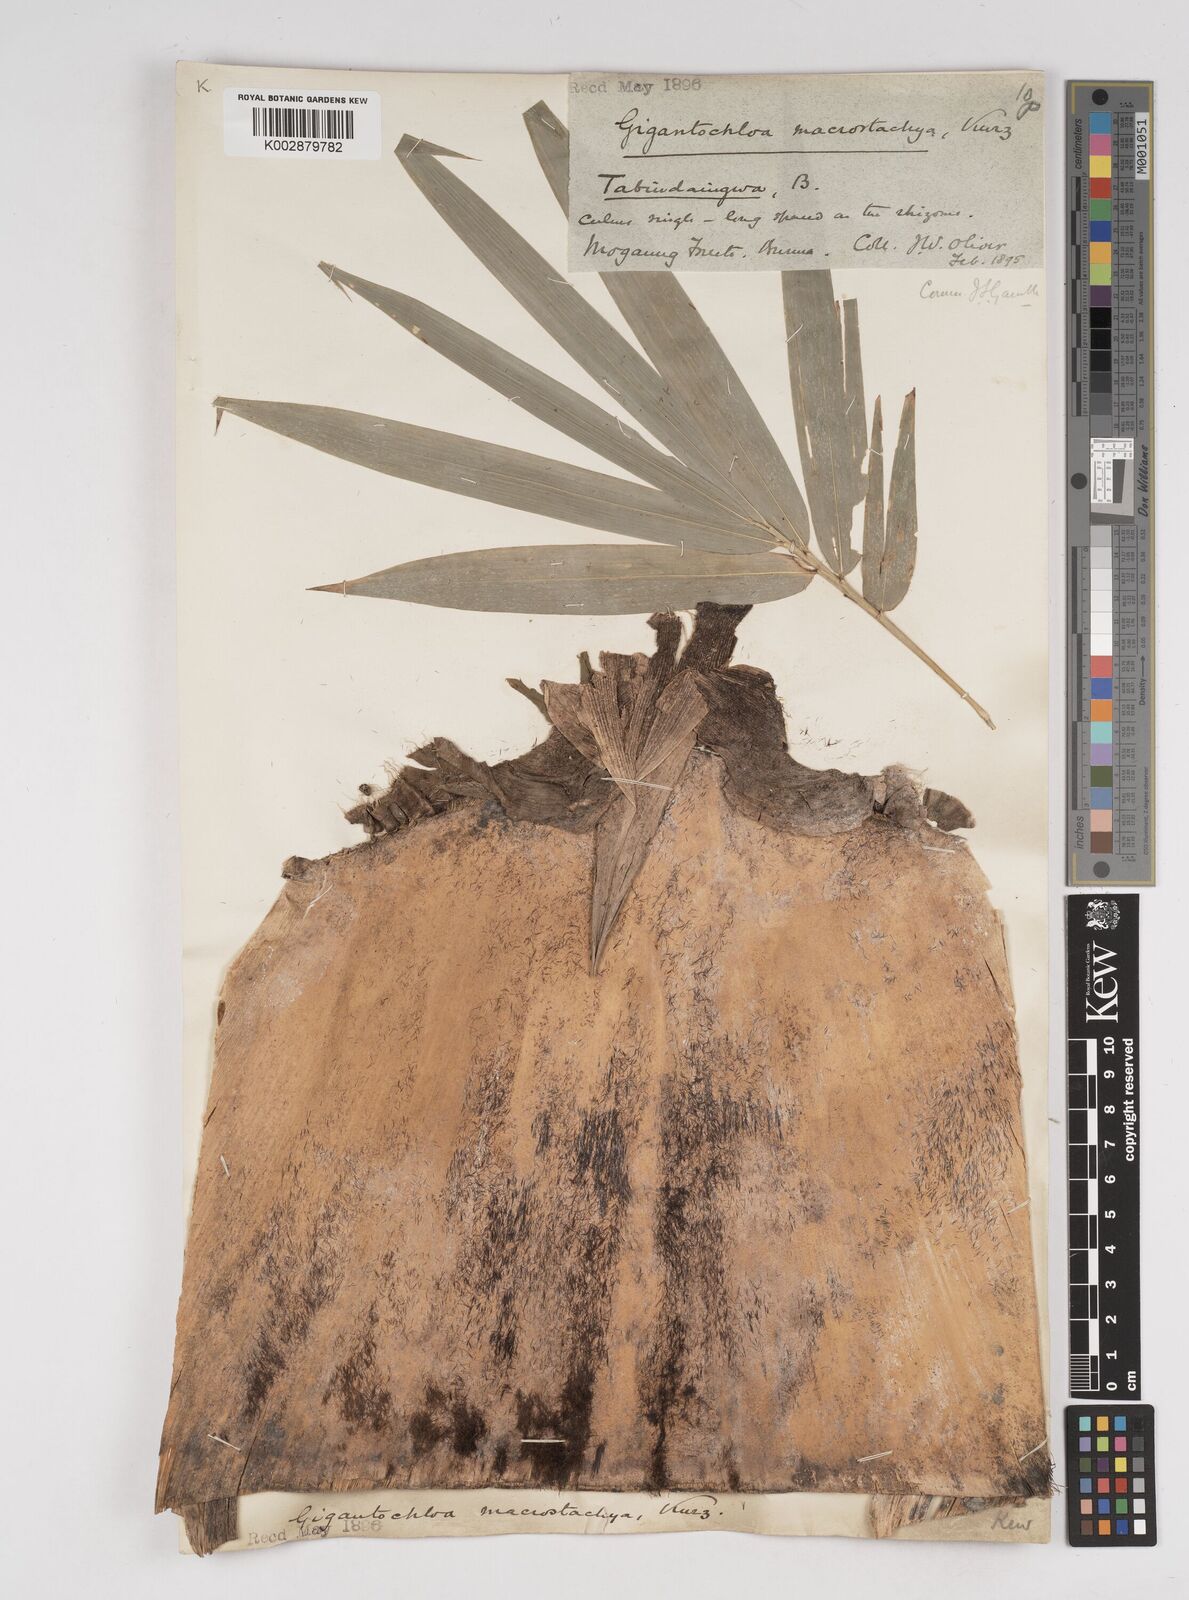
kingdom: Plantae
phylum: Tracheophyta
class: Liliopsida
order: Poales
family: Poaceae
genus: Gigantochloa
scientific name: Gigantochloa macrostachya
